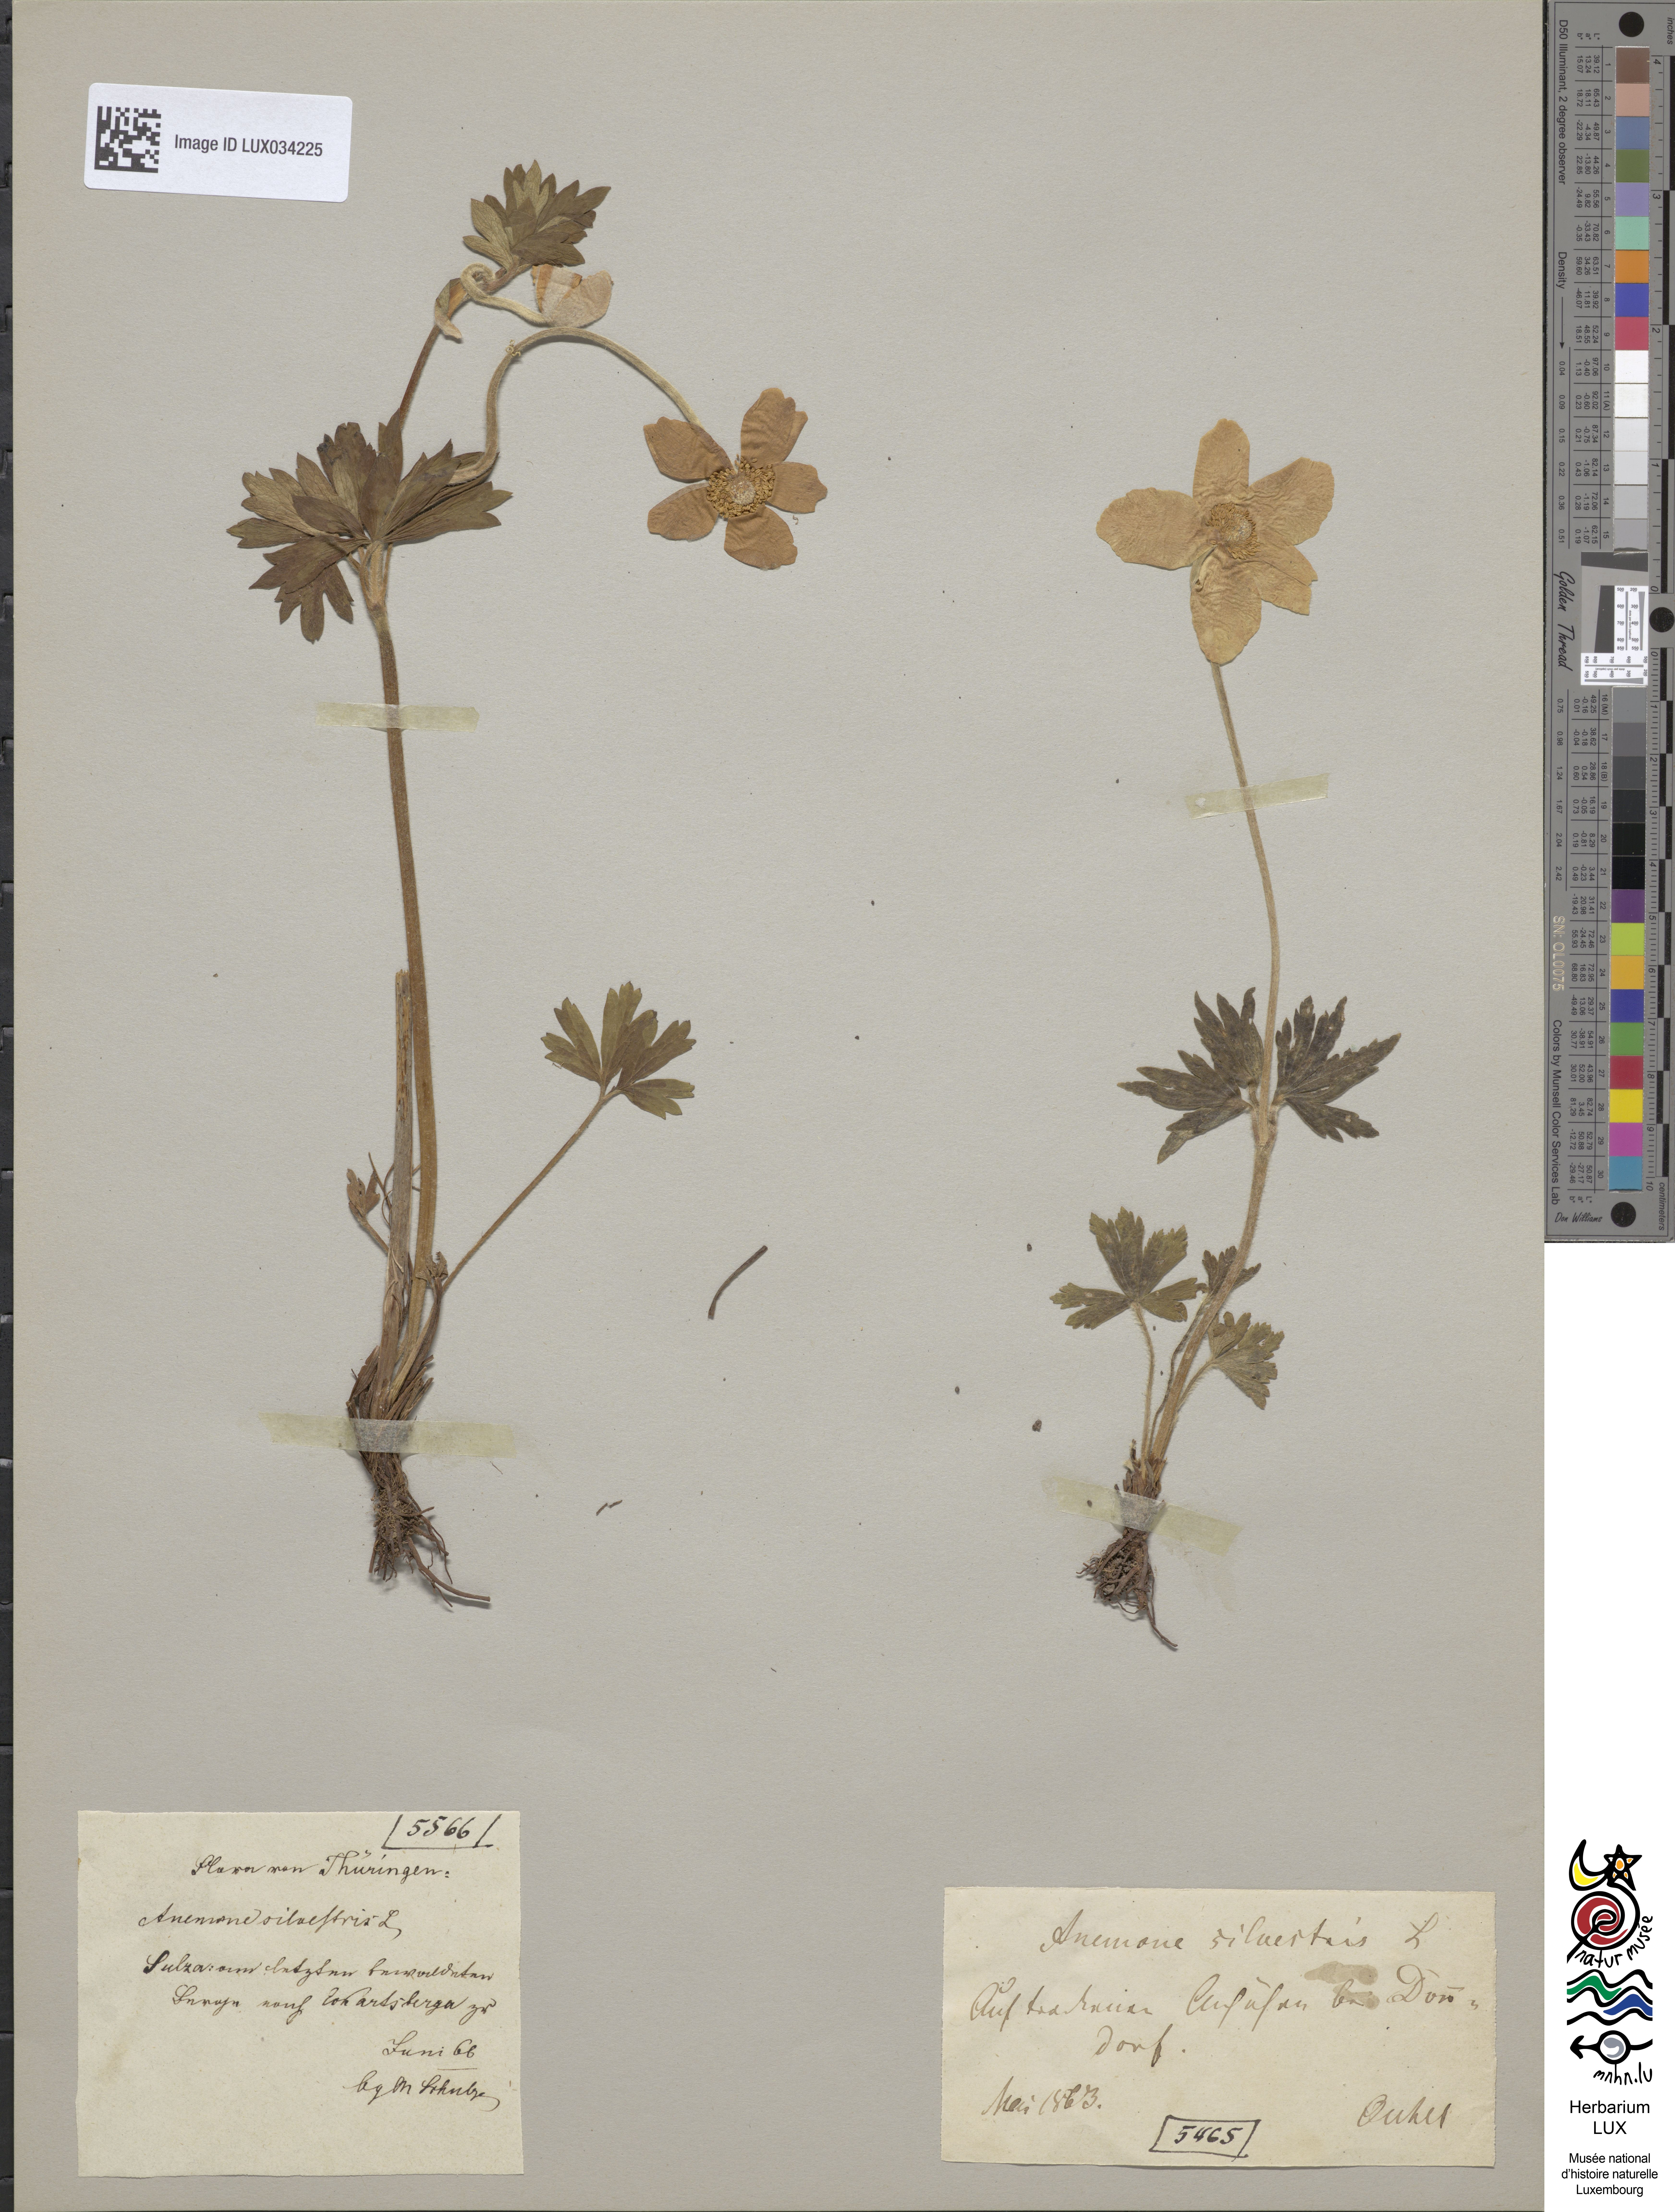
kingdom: Plantae
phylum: Tracheophyta
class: Magnoliopsida
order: Ranunculales
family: Ranunculaceae
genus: Anemone
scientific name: Anemone sylvestris
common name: Snowdrop anemone
